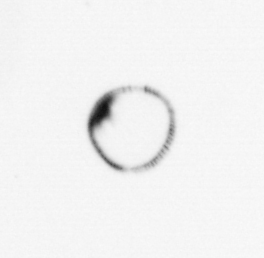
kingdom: Chromista
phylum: Myzozoa
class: Dinophyceae
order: Noctilucales
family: Noctilucaceae
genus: Noctiluca
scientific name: Noctiluca scintillans
